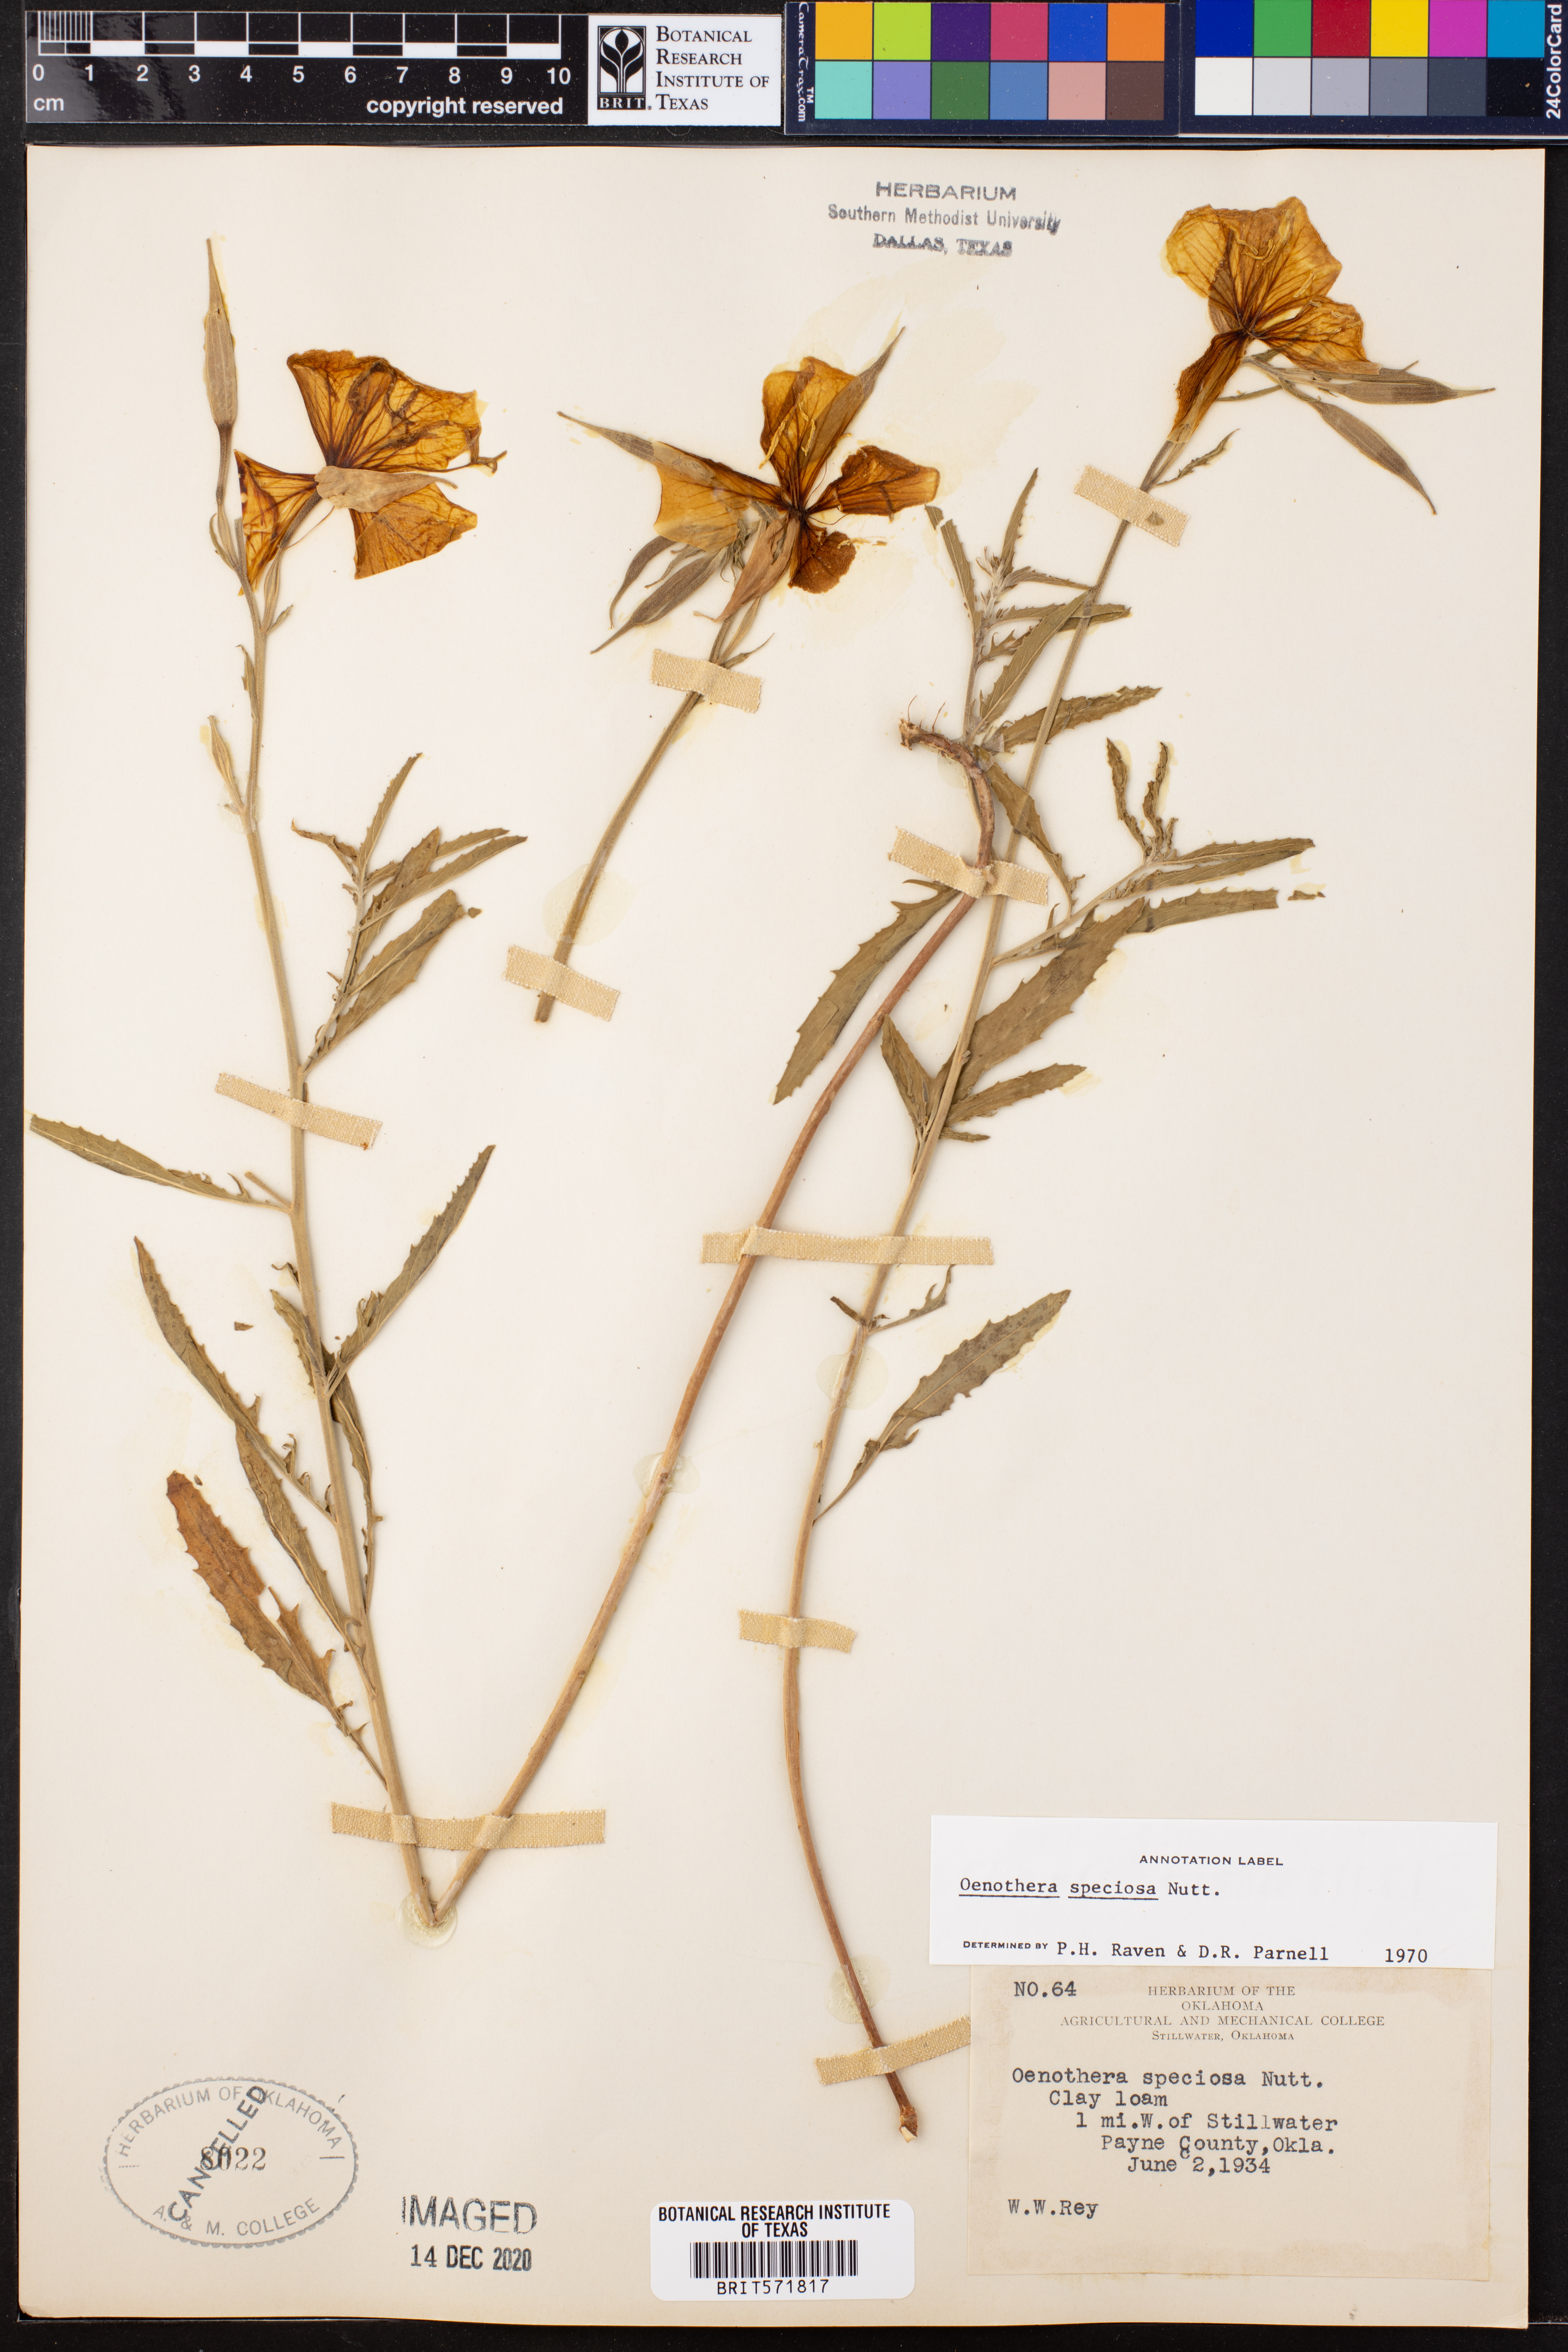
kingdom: Plantae
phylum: Tracheophyta
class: Magnoliopsida
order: Myrtales
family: Onagraceae
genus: Oenothera
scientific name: Oenothera speciosa
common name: White evening-primrose
